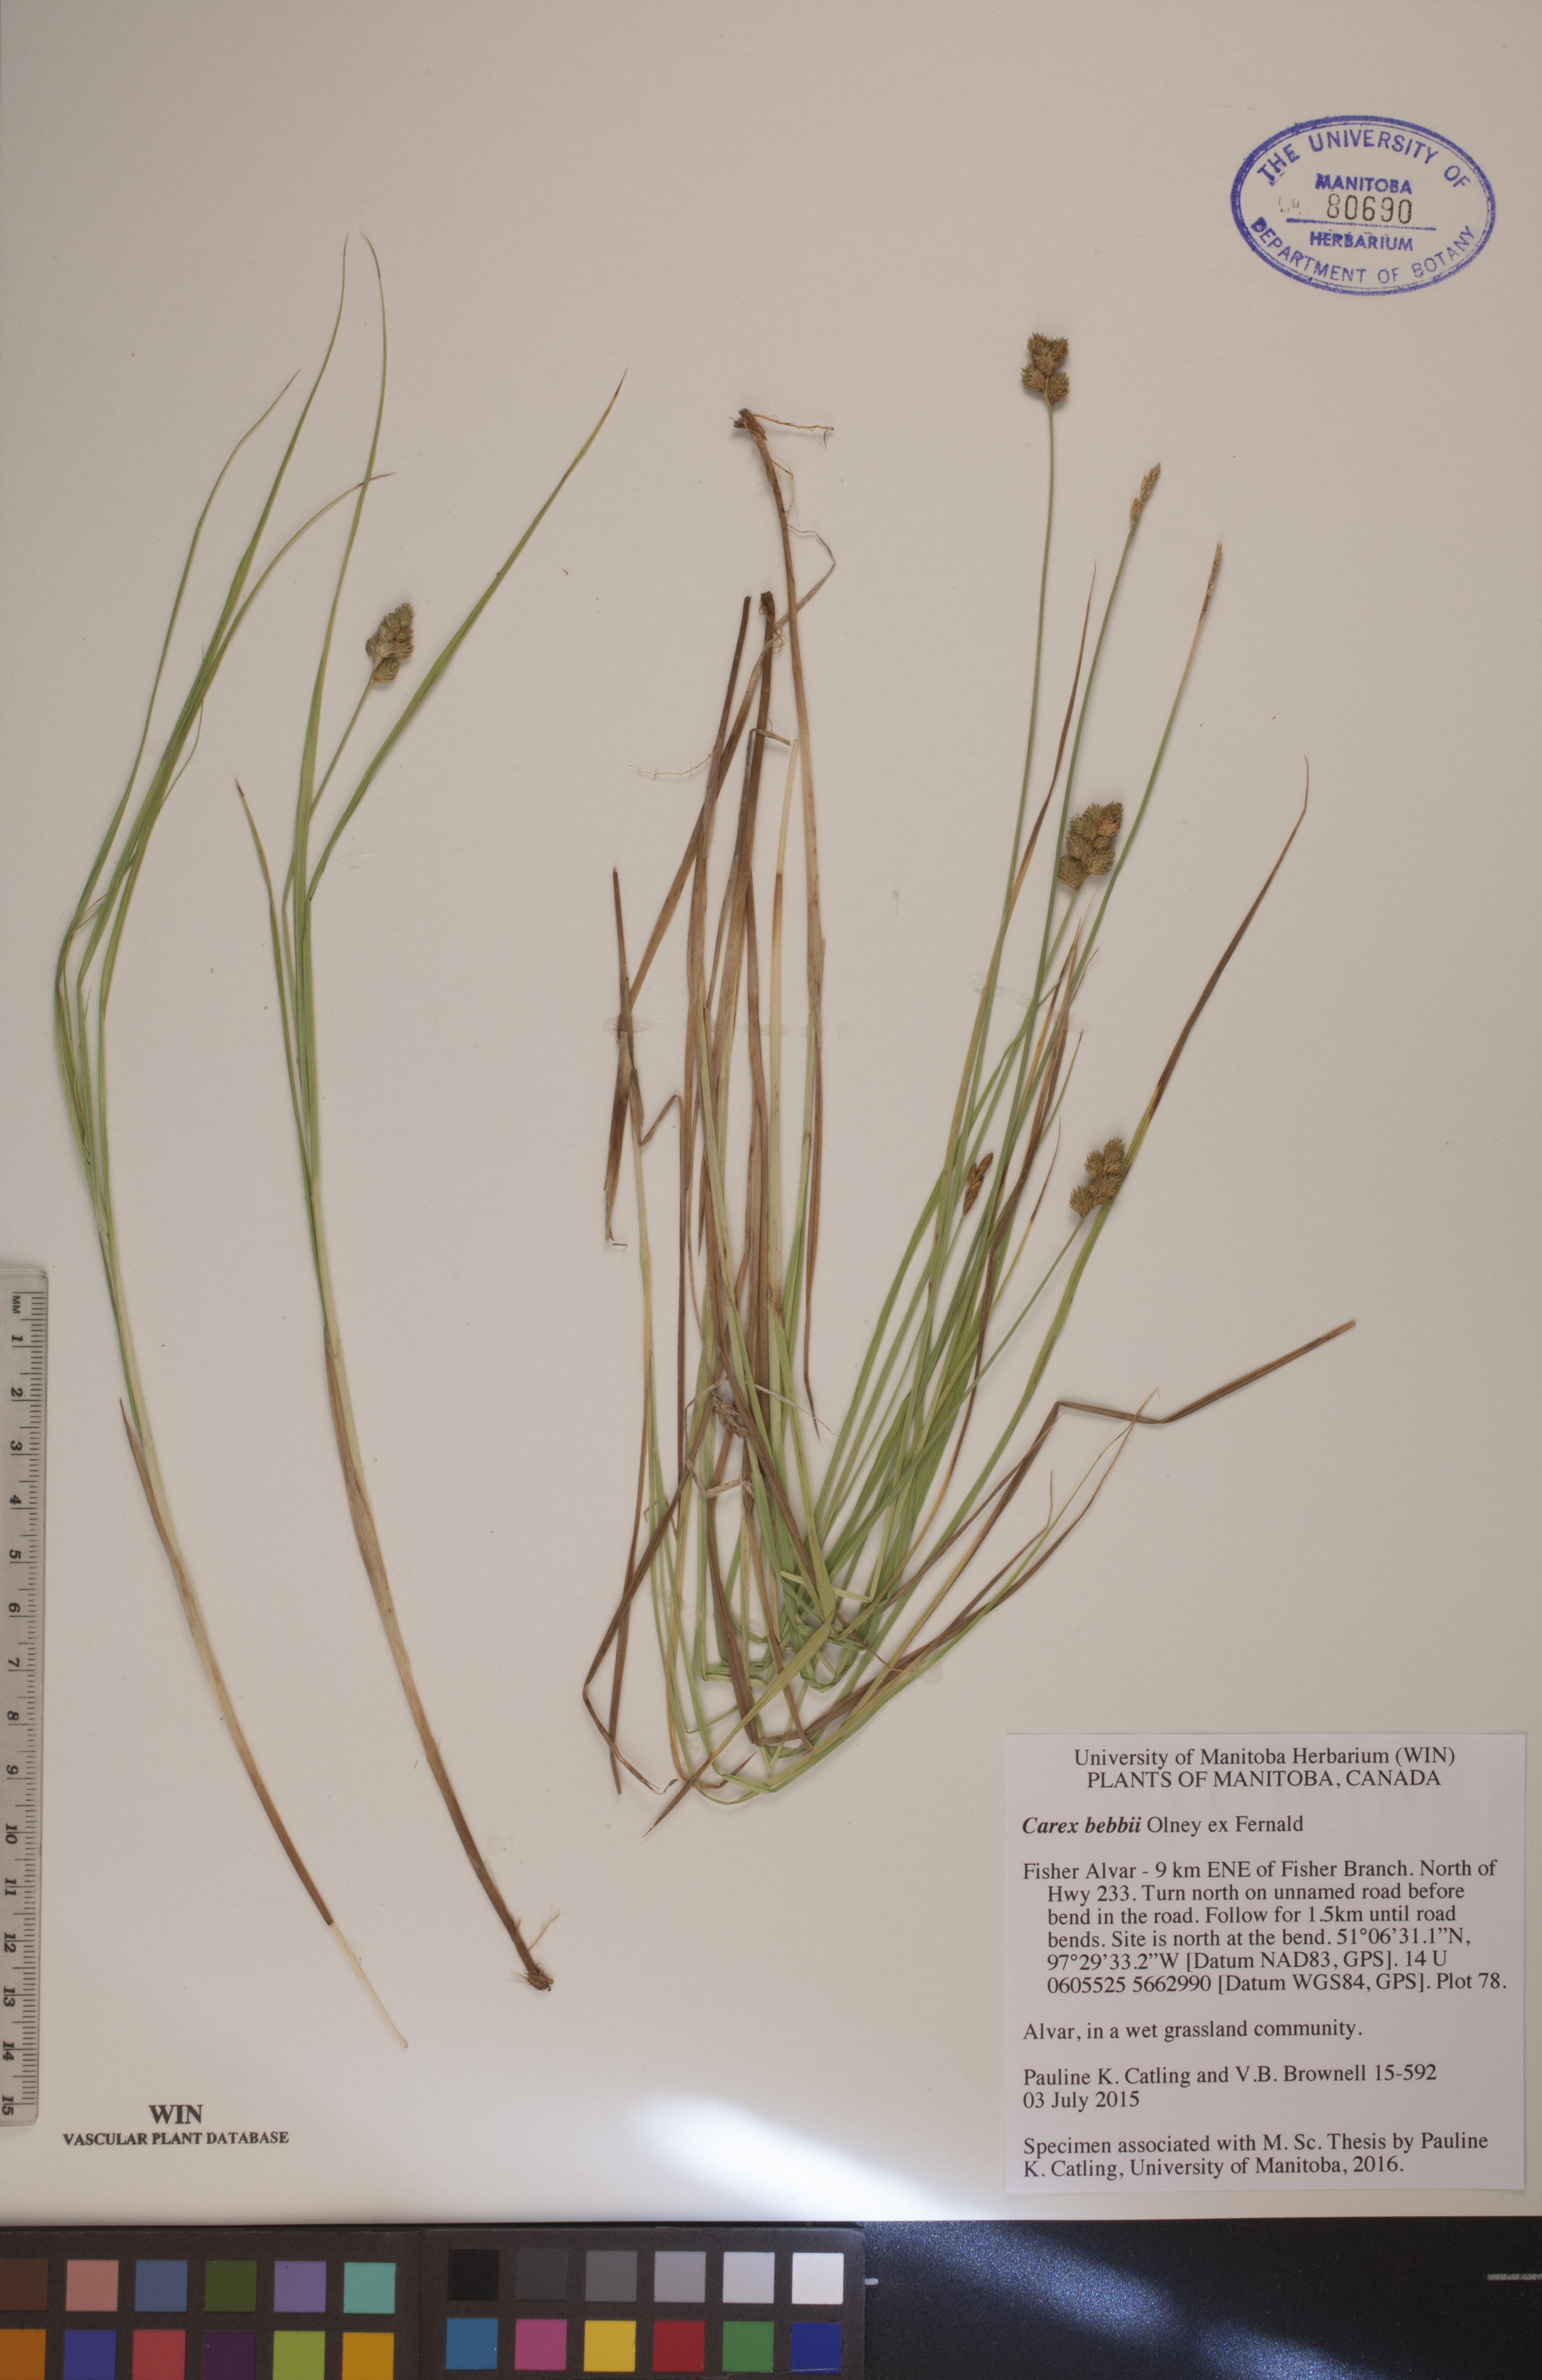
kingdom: Plantae
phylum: Tracheophyta
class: Liliopsida
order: Poales
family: Cyperaceae
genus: Carex
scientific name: Carex bebbii
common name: Bebb's sedge
